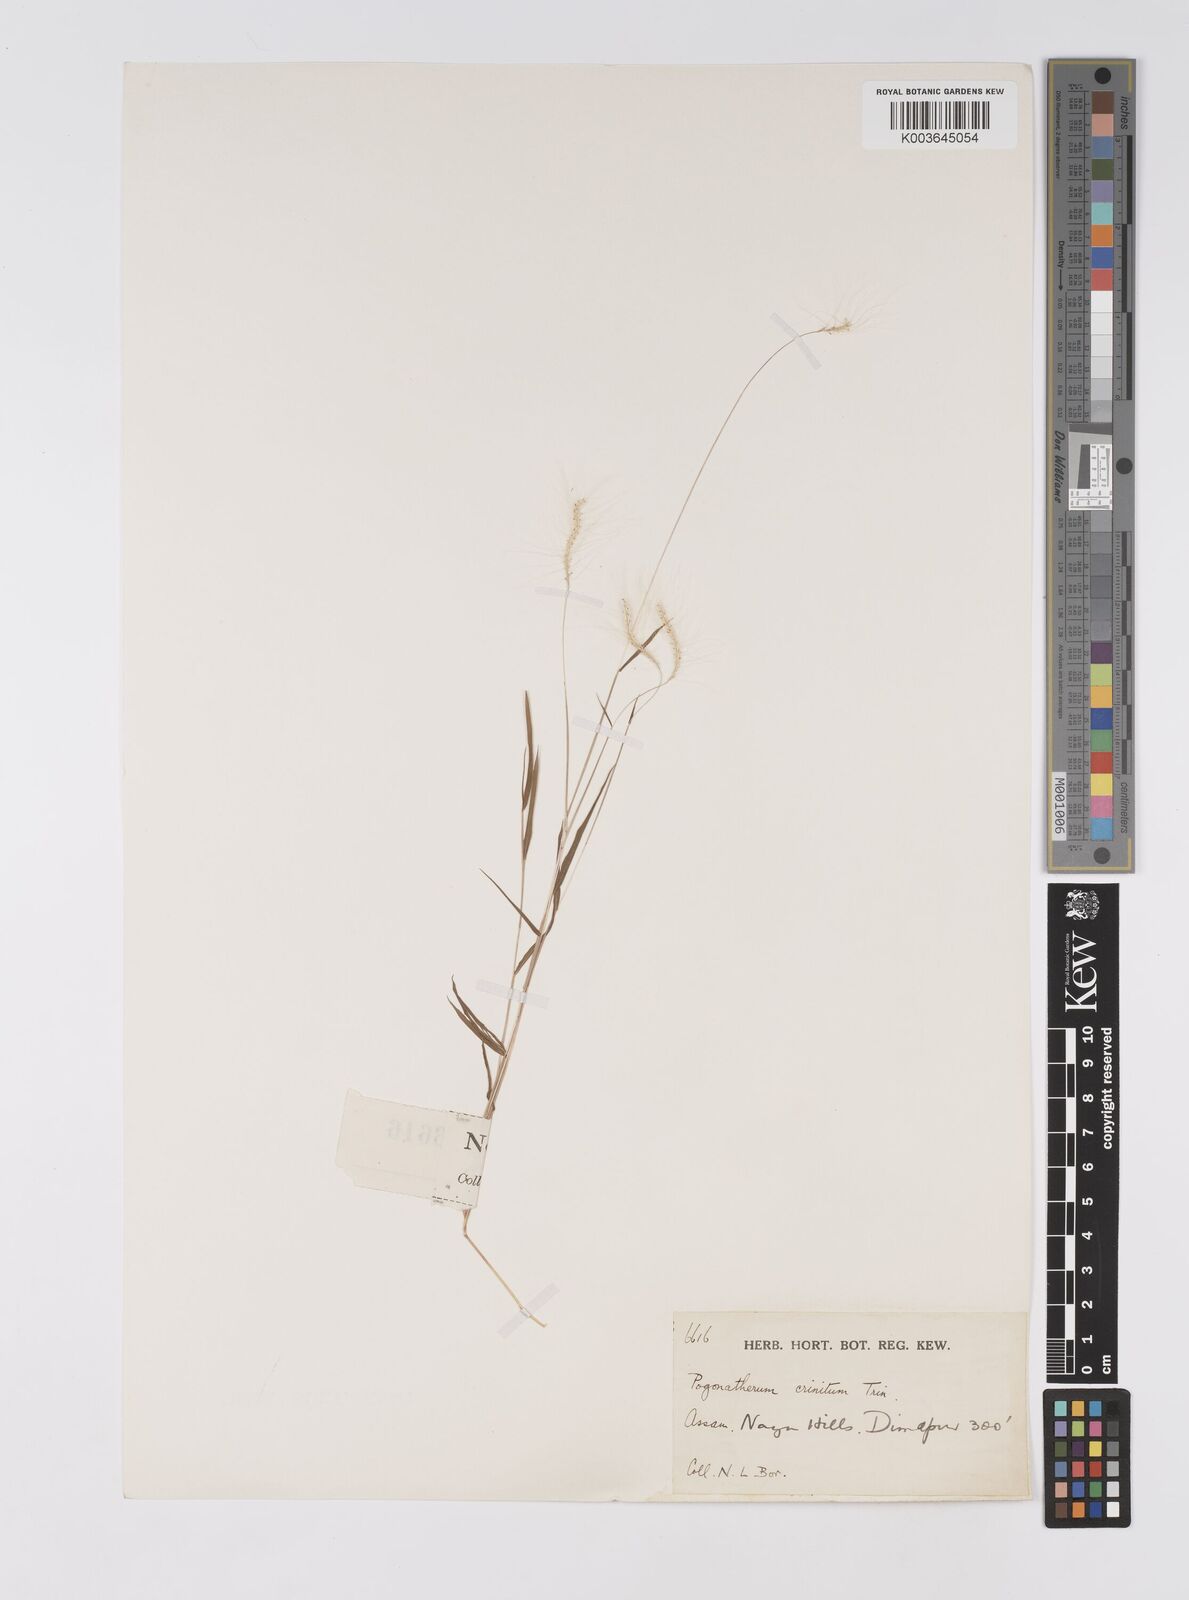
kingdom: Plantae
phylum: Tracheophyta
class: Liliopsida
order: Poales
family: Poaceae
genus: Pogonatherum
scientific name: Pogonatherum crinitum
